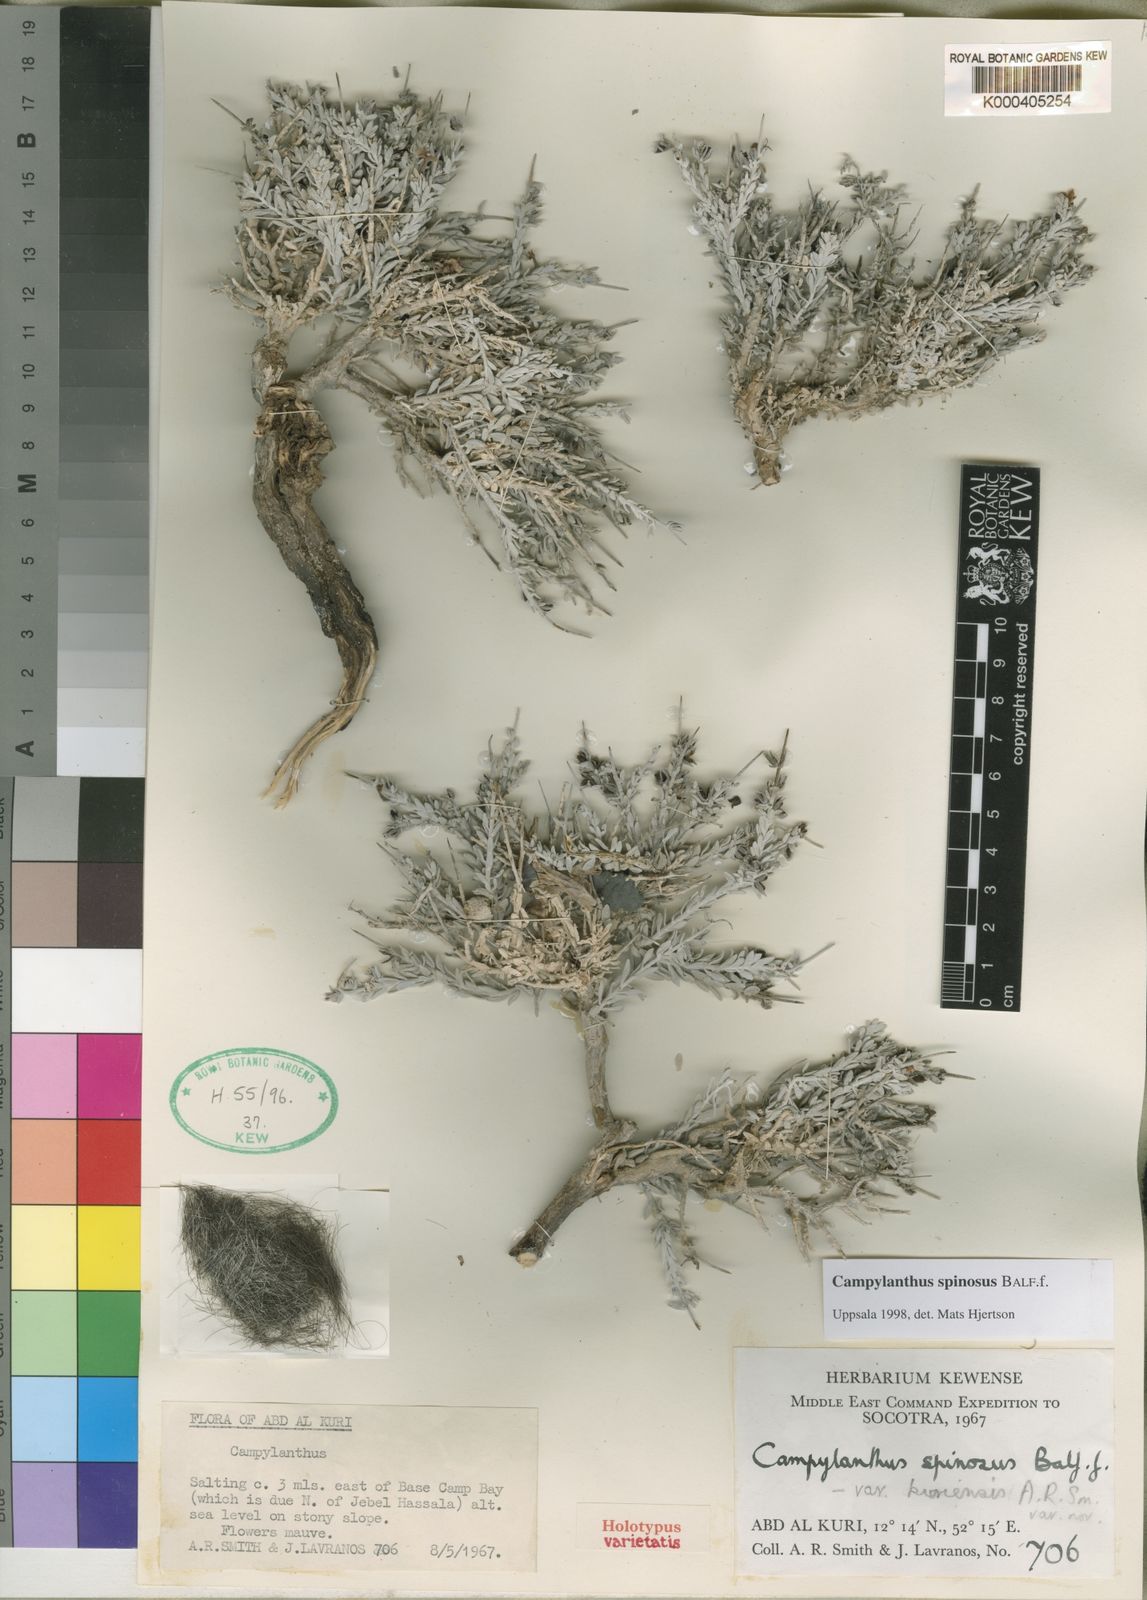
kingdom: Plantae
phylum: Tracheophyta
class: Magnoliopsida
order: Lamiales
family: Plantaginaceae
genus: Campylanthus
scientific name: Campylanthus spinosus
